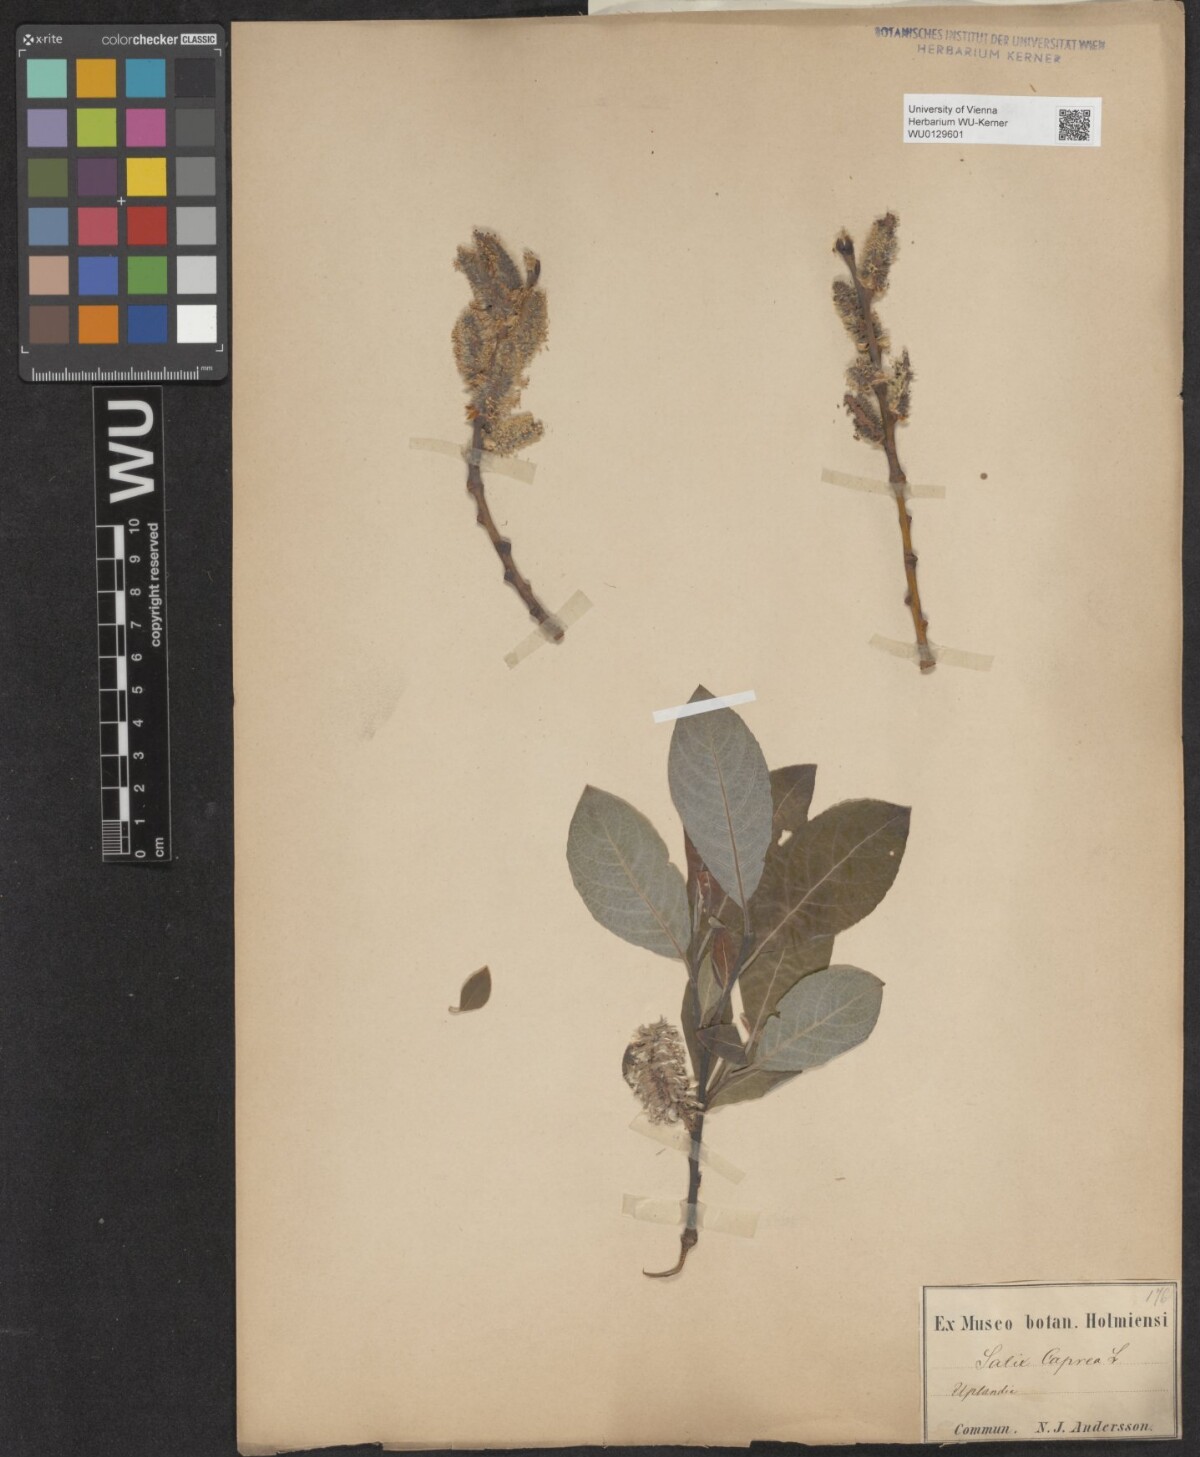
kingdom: Plantae
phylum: Tracheophyta
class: Magnoliopsida
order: Malpighiales
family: Salicaceae
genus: Salix
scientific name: Salix caprea
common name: Goat willow
